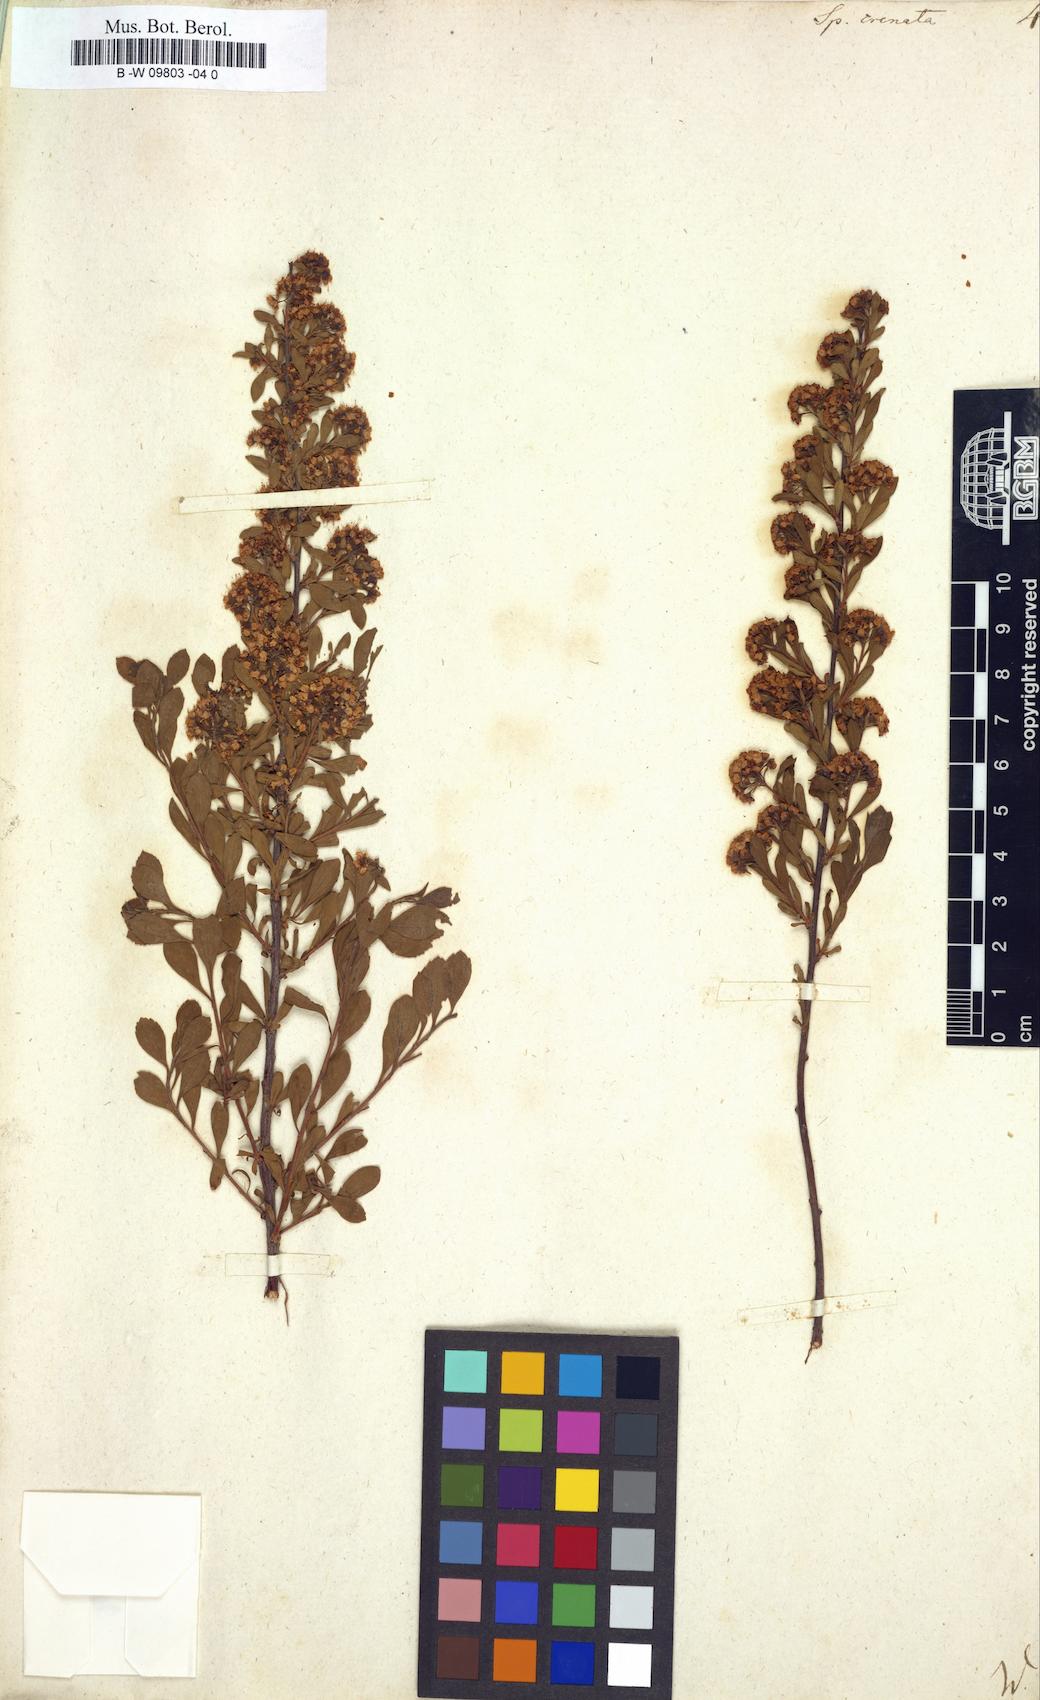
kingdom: Plantae
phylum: Tracheophyta
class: Magnoliopsida
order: Rosales
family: Rosaceae
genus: Spiraea
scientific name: Spiraea crenata
